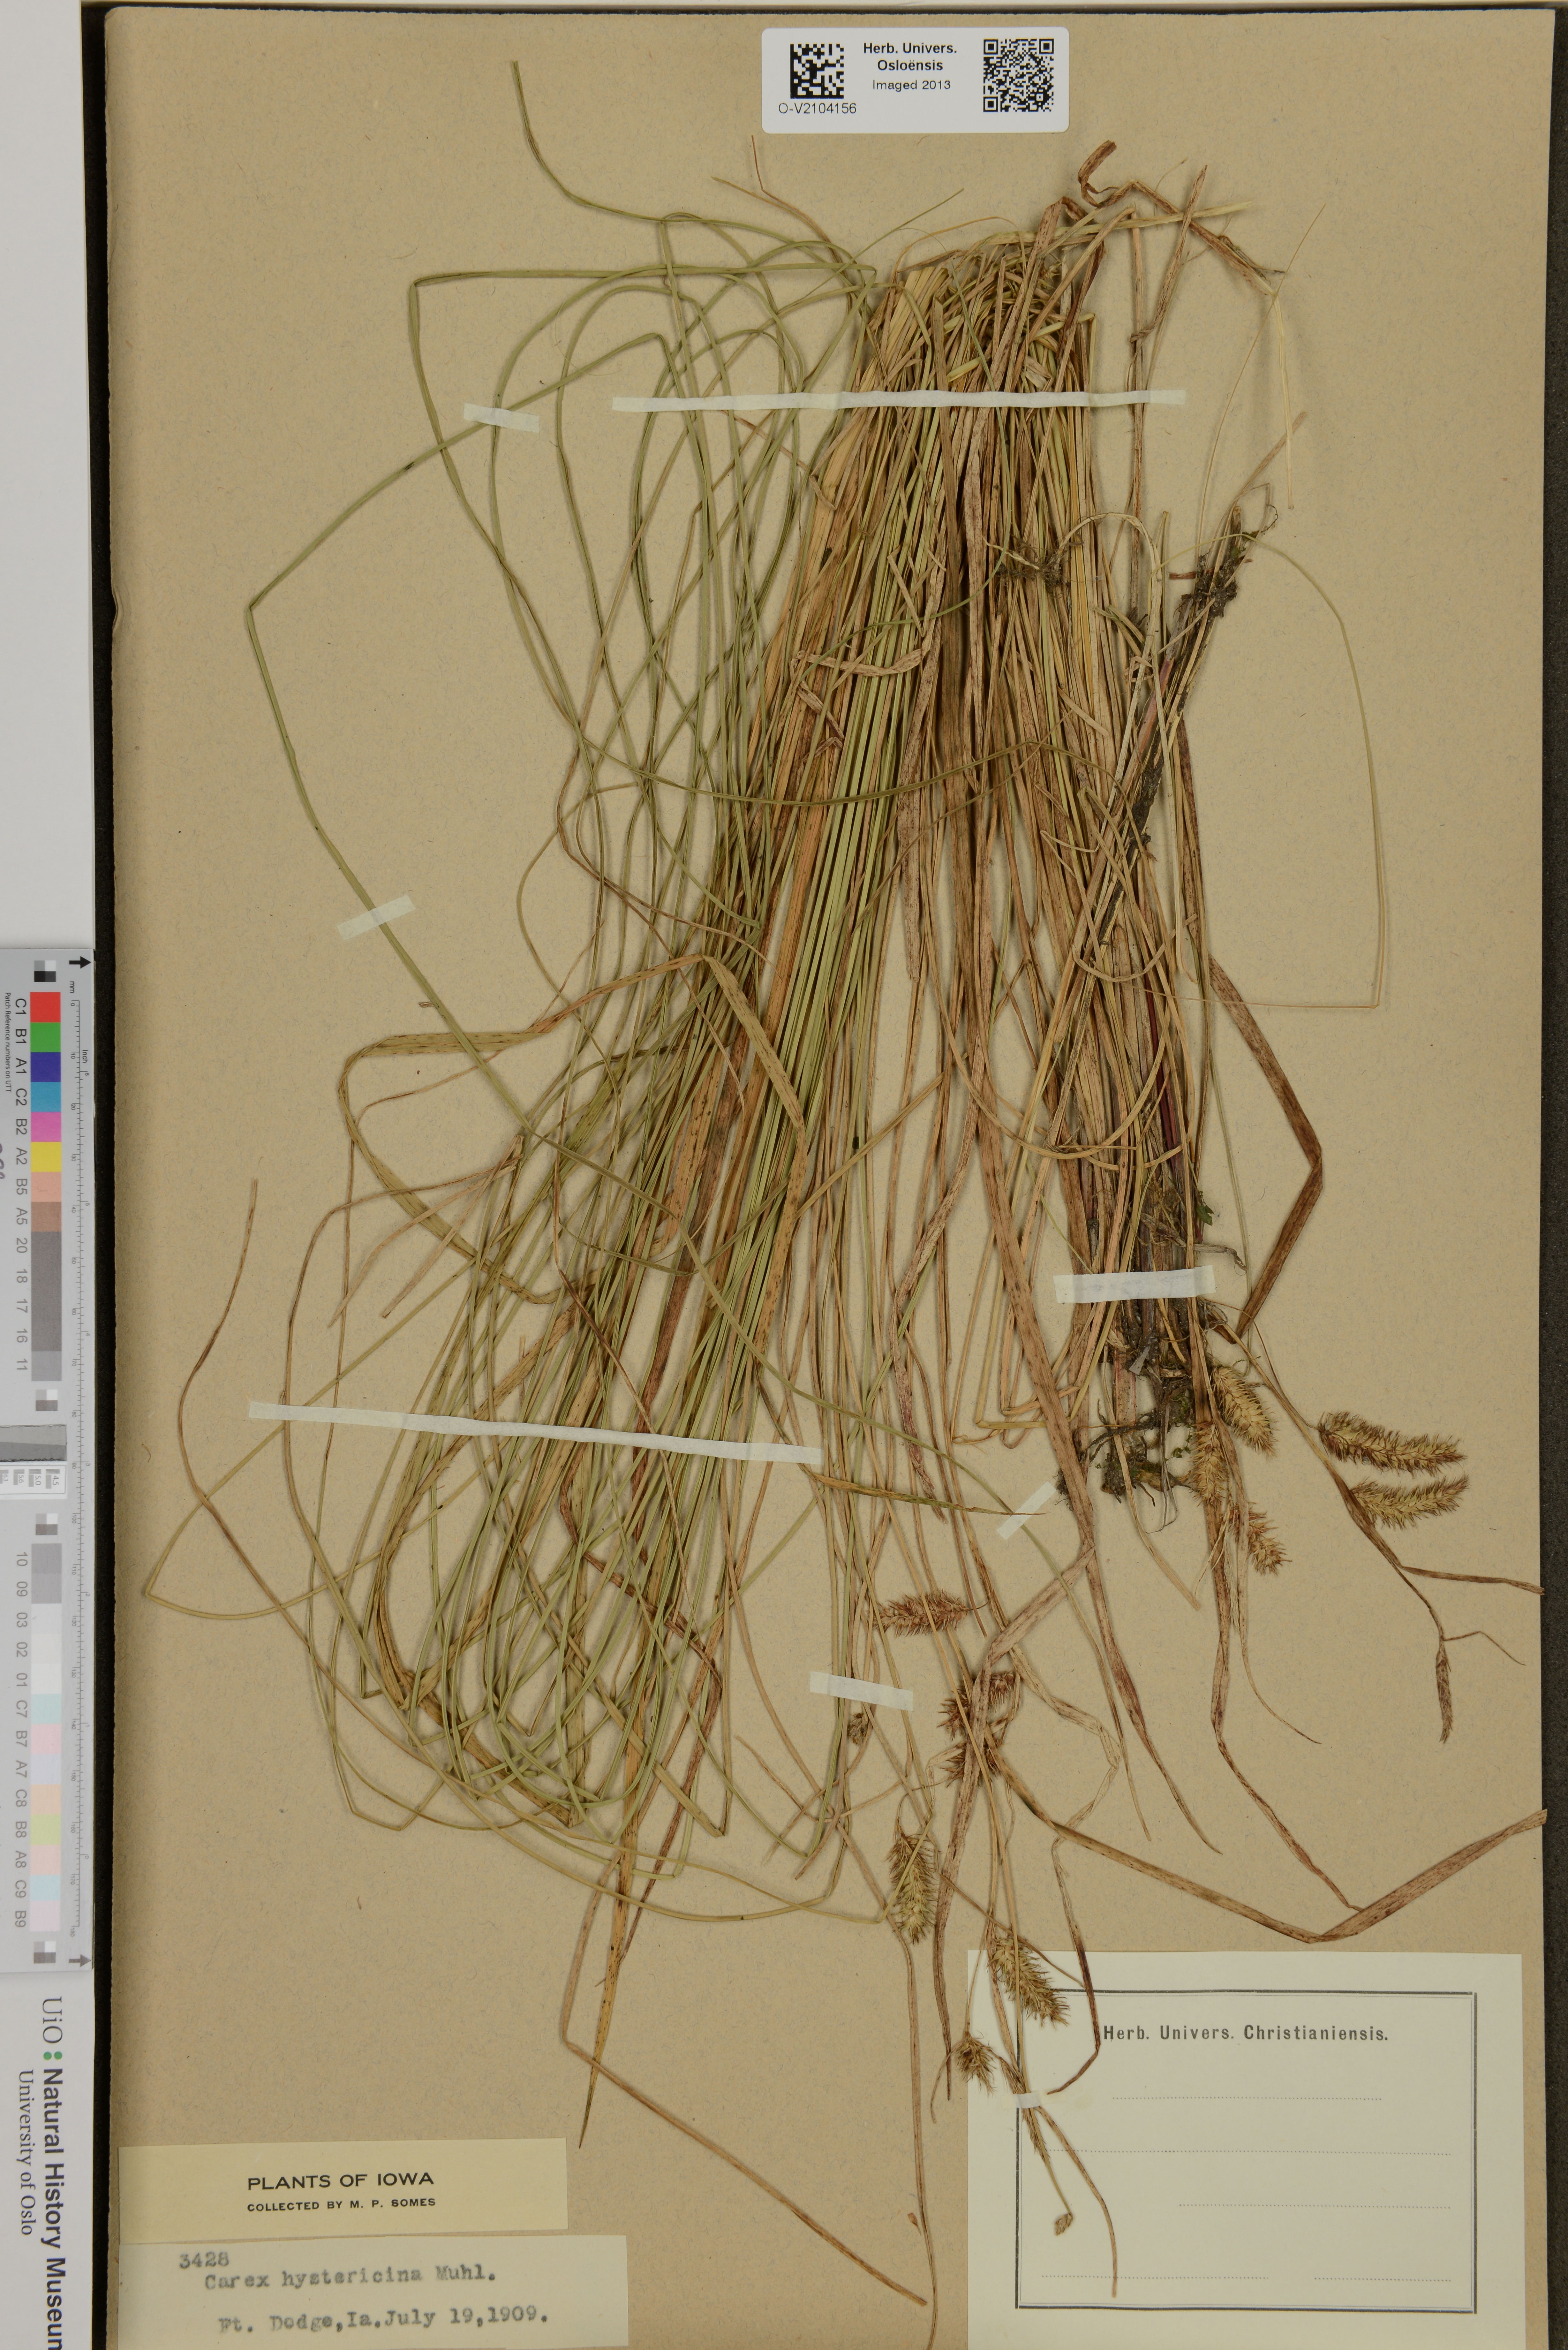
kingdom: Plantae
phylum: Tracheophyta
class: Liliopsida
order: Poales
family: Cyperaceae
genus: Carex
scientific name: Carex hystericina
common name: Bottlebrush sedge
